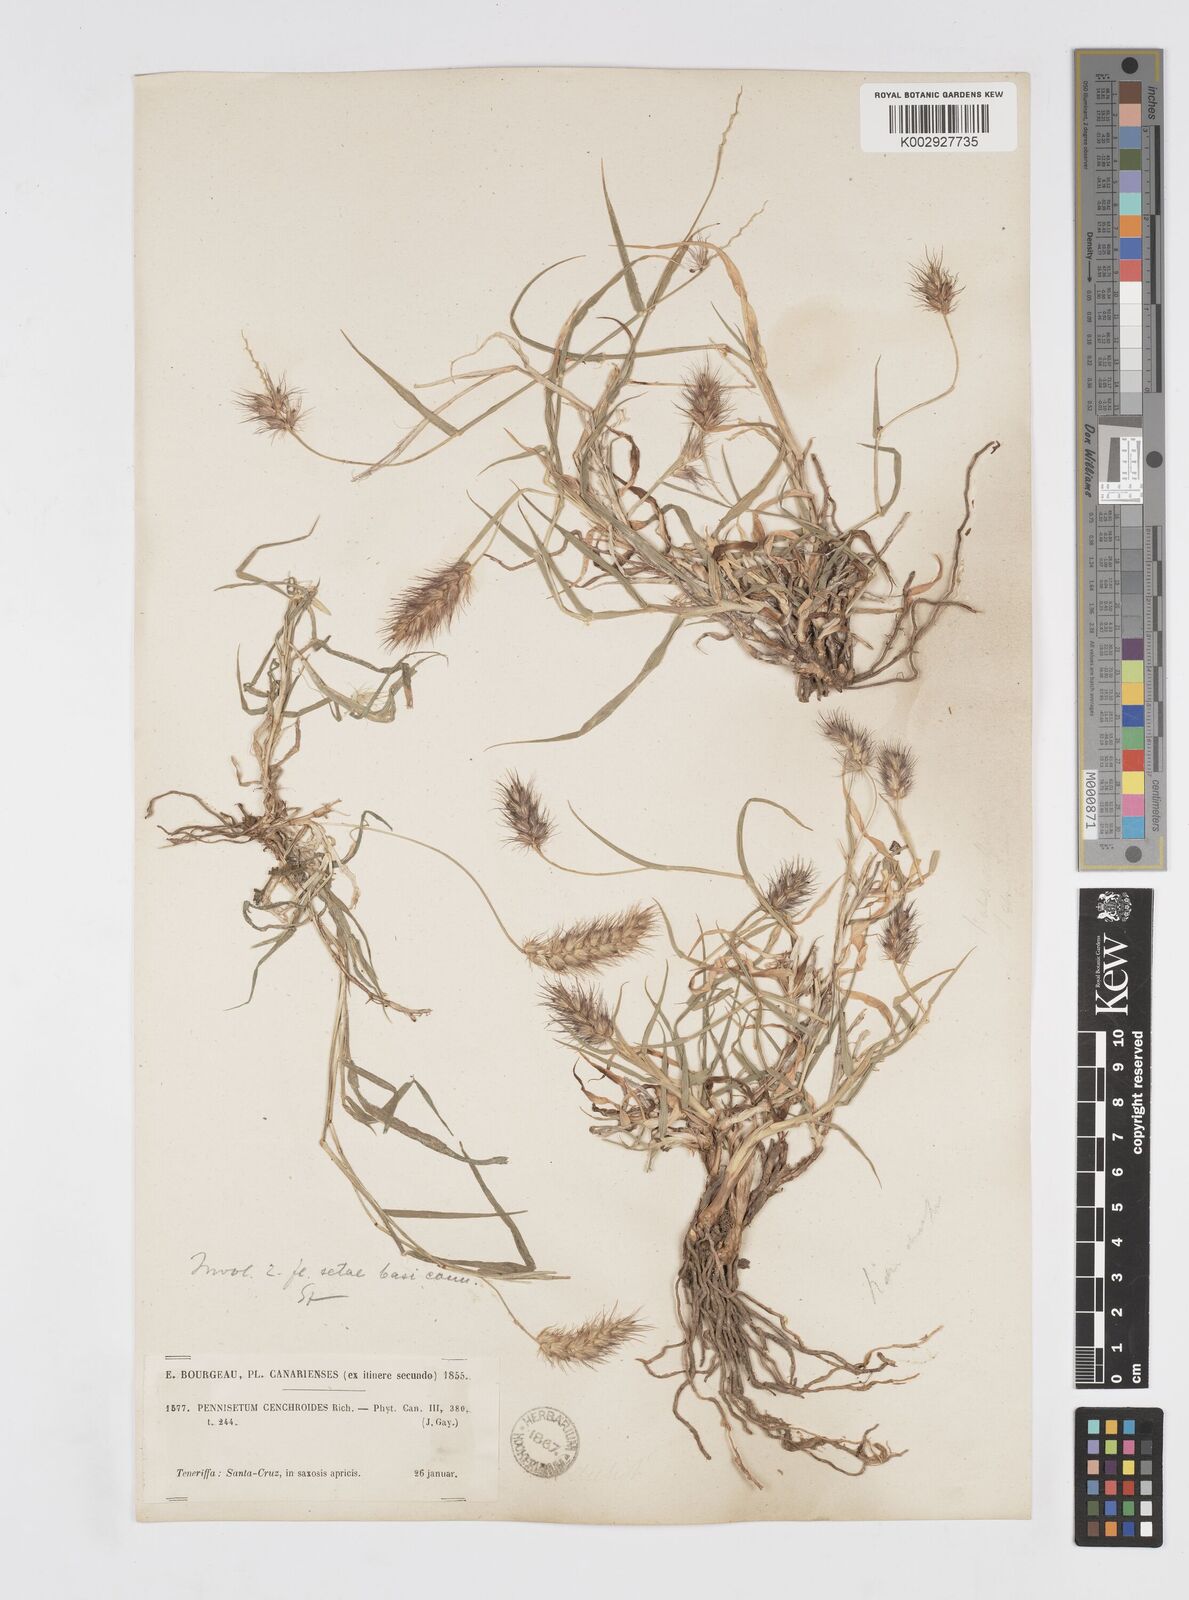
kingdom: Plantae
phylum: Tracheophyta
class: Liliopsida
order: Poales
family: Poaceae
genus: Cenchrus
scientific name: Cenchrus ciliaris
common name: Buffelgrass
